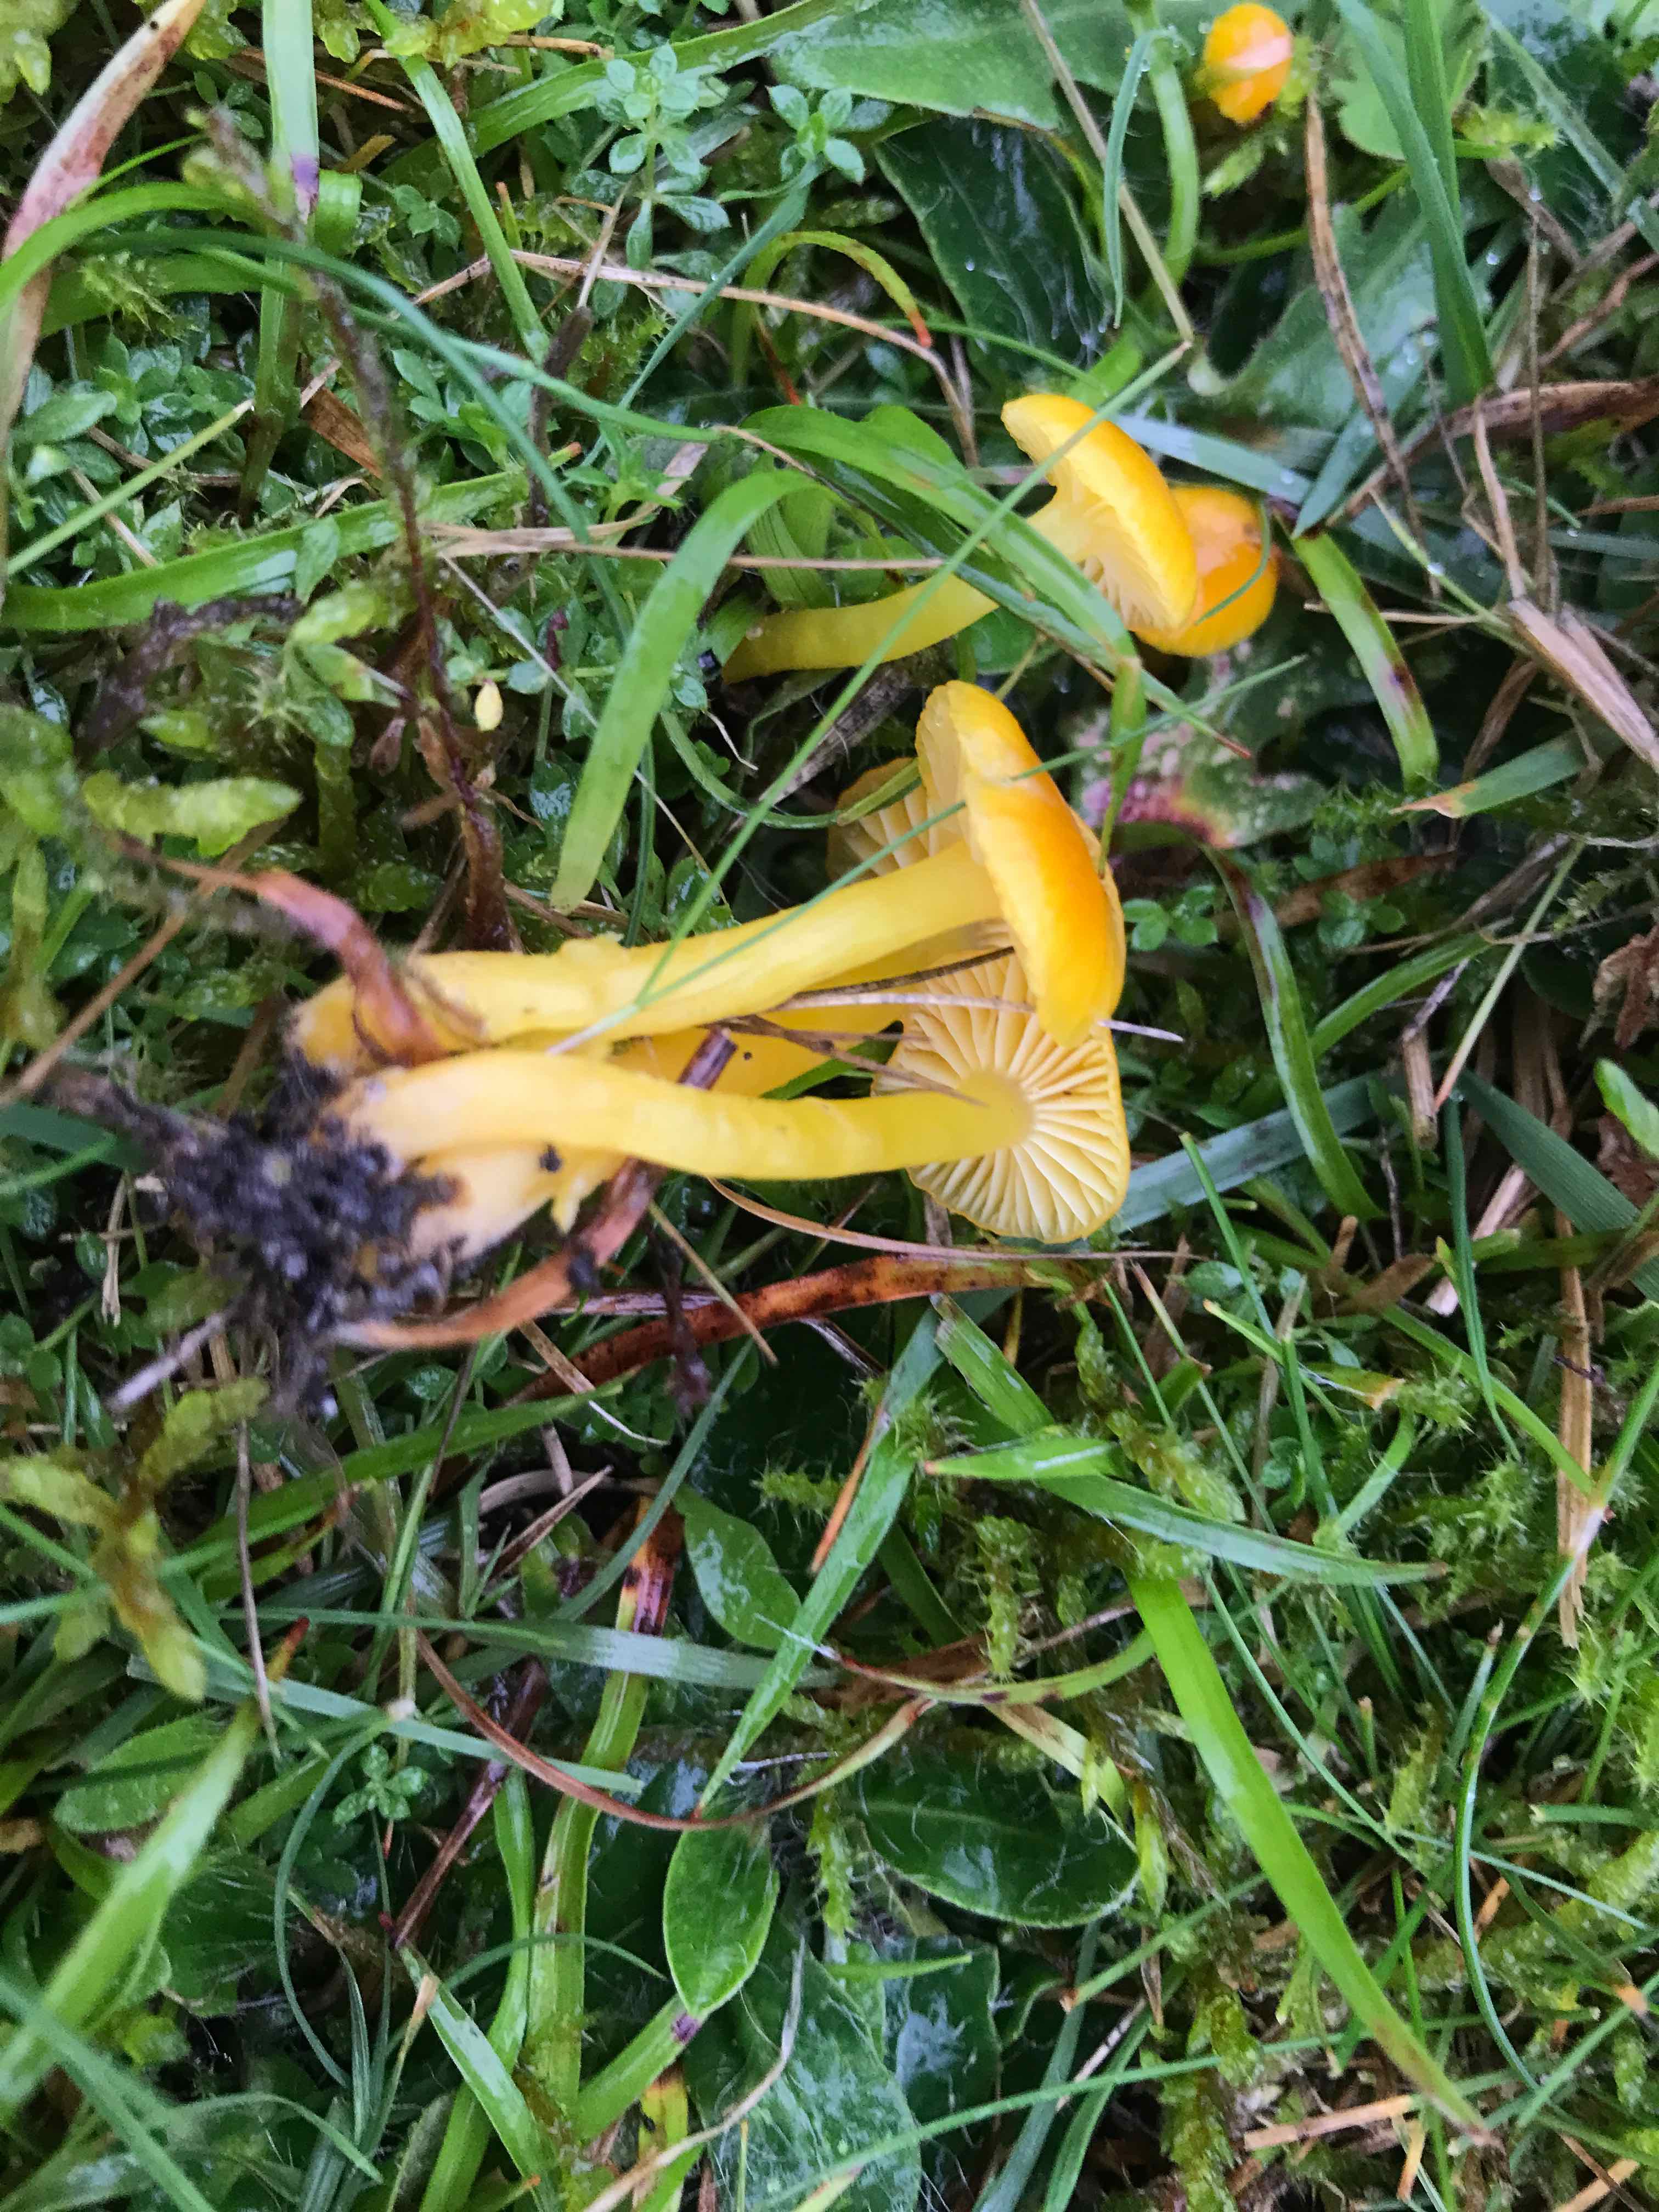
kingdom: Fungi
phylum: Basidiomycota
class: Agaricomycetes
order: Agaricales
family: Hygrophoraceae
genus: Hygrocybe
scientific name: Hygrocybe ceracea
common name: voksgul vokshat
